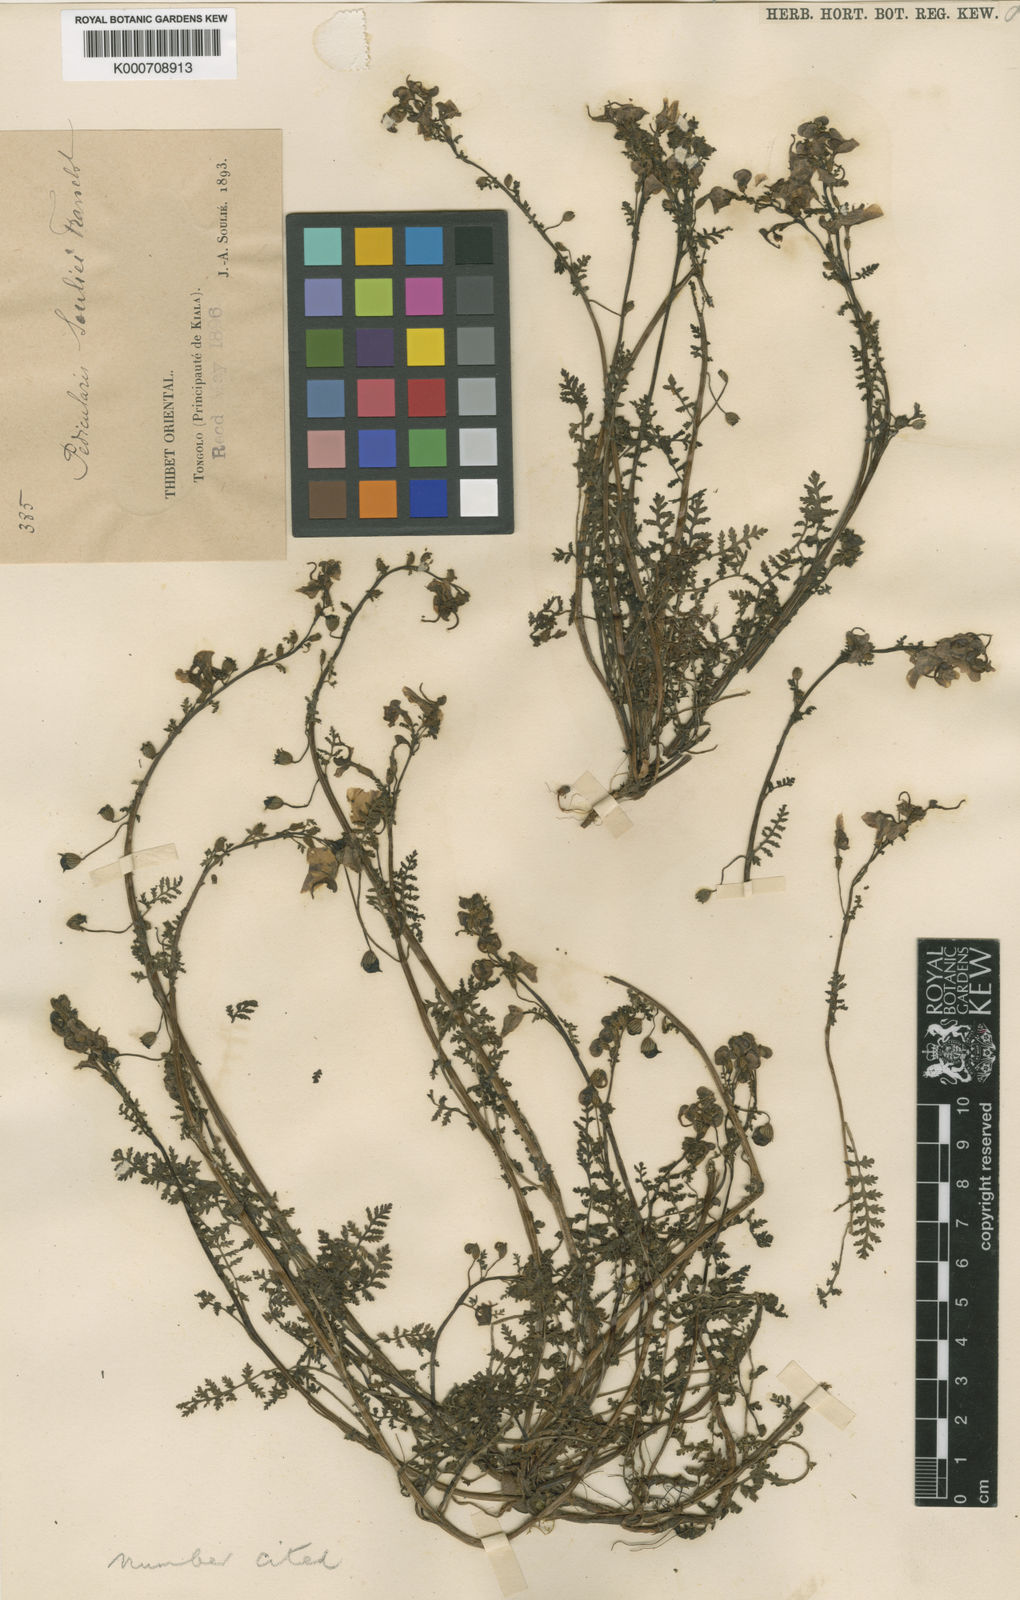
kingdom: Plantae
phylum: Tracheophyta
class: Magnoliopsida
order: Lamiales
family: Orobanchaceae
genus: Pedicularis
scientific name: Pedicularis souliei
